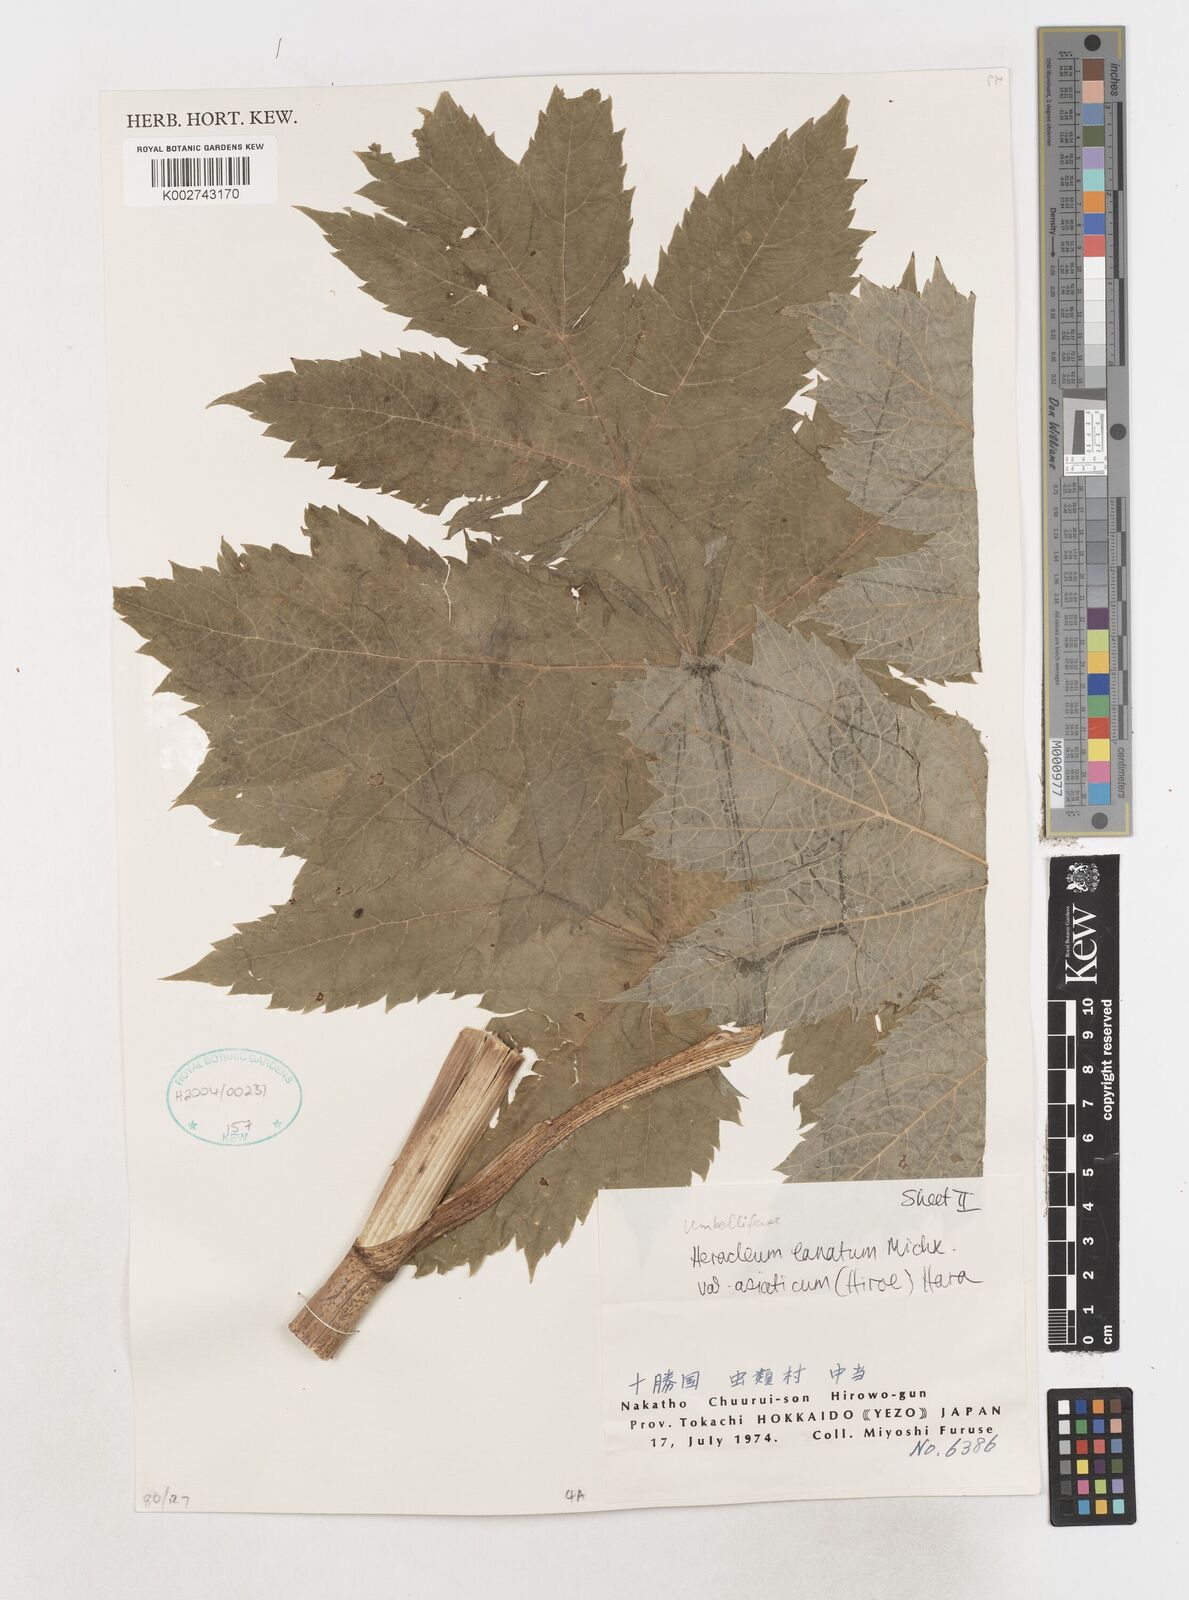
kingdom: Plantae
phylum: Tracheophyta
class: Magnoliopsida
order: Apiales
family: Apiaceae
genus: Heracleum
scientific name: Heracleum maximum
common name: American cow parsnip
